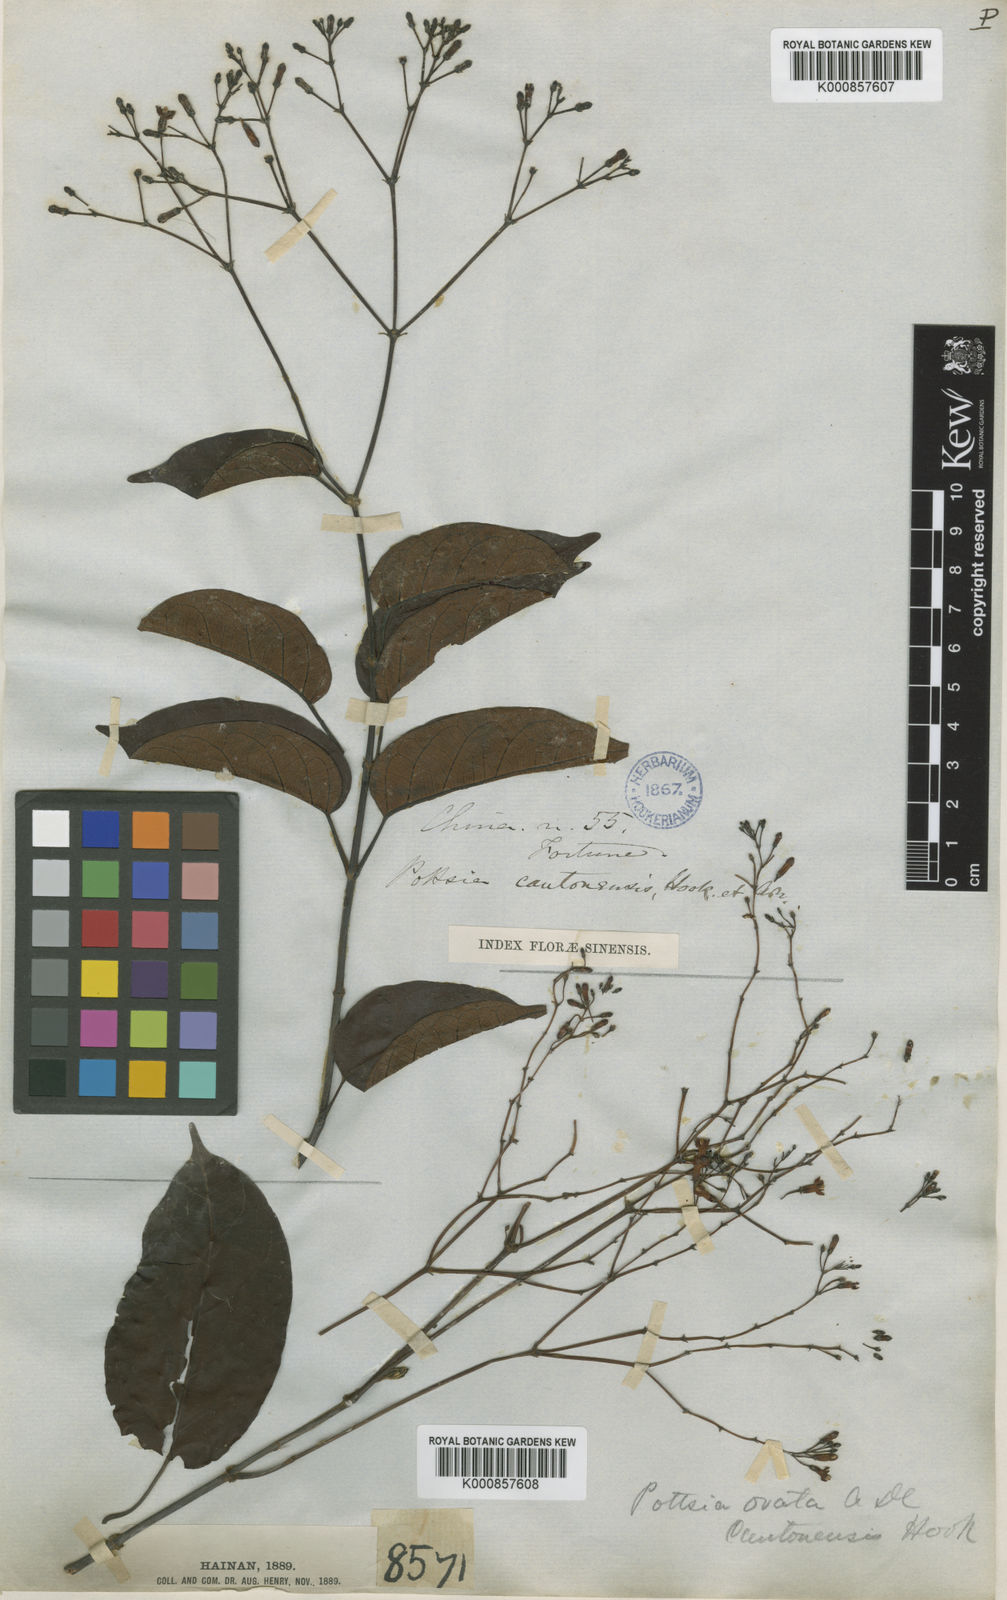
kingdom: Plantae
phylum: Tracheophyta
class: Magnoliopsida
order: Gentianales
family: Apocynaceae
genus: Pottsia
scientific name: Pottsia laxiflora
